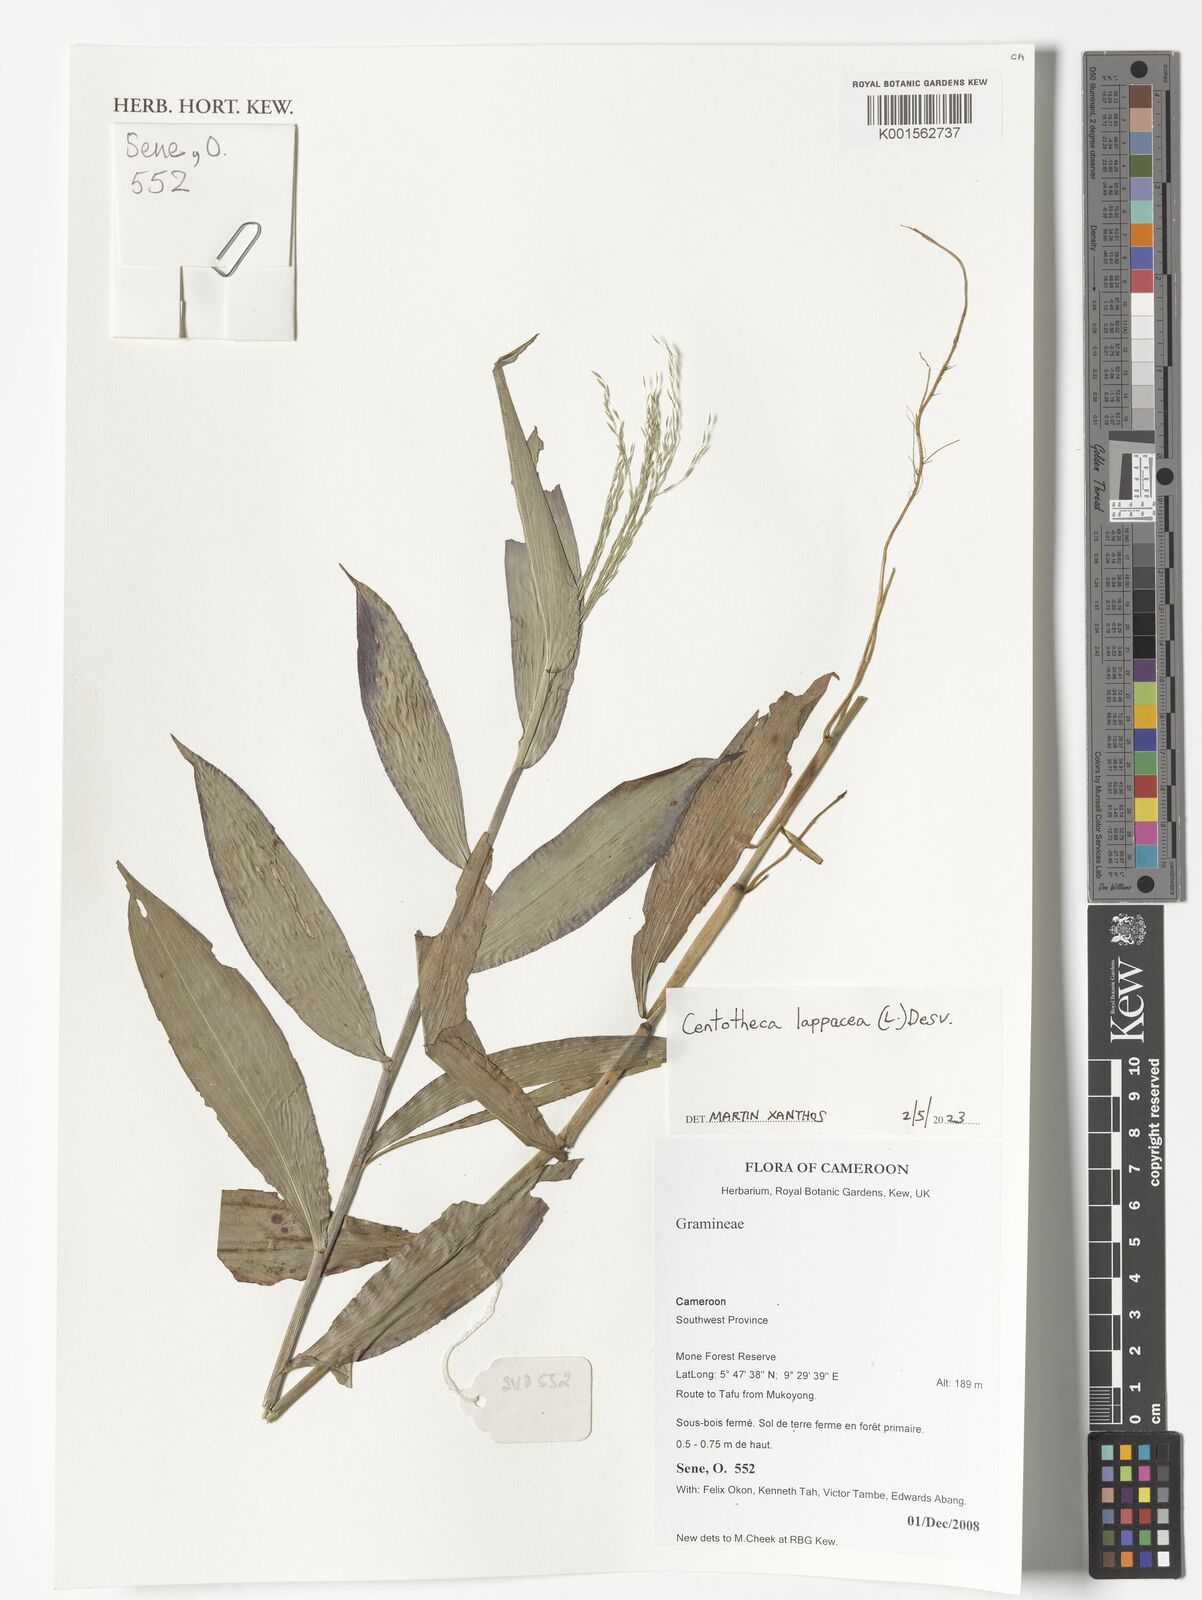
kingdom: Plantae
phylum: Tracheophyta
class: Liliopsida
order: Poales
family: Poaceae
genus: Centotheca
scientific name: Centotheca lappacea
